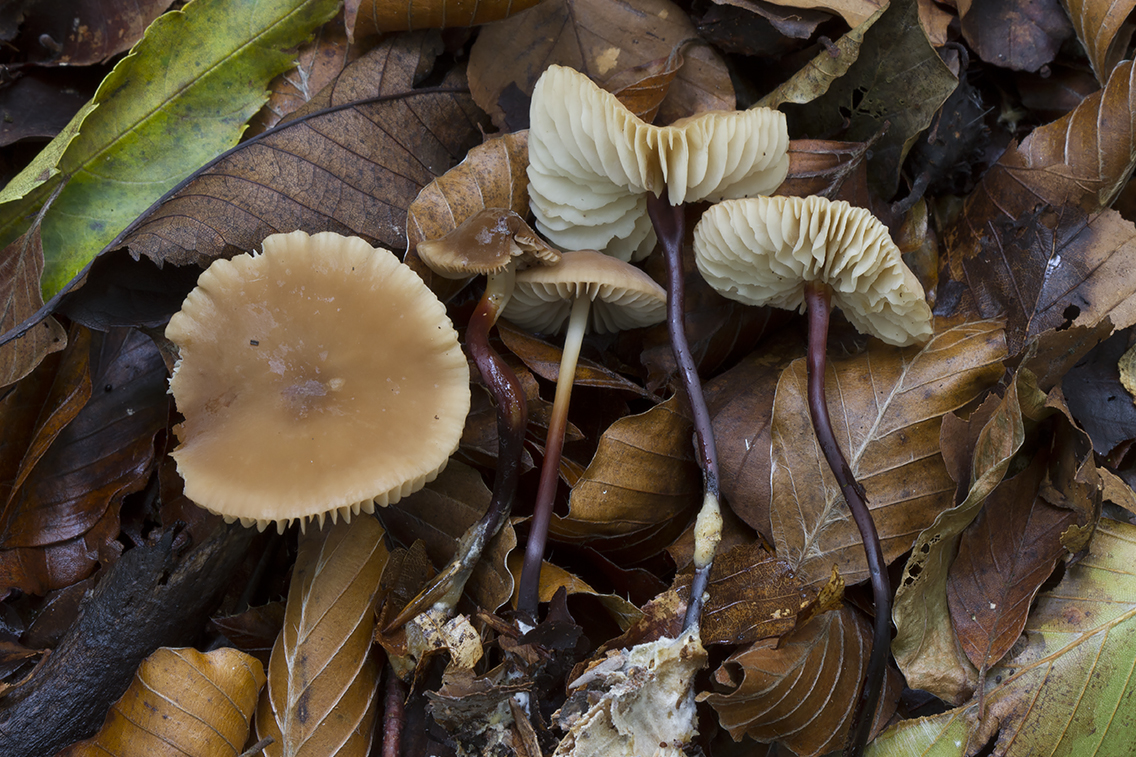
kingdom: Fungi
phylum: Basidiomycota
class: Agaricomycetes
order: Agaricales
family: Marasmiaceae
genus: Marasmius
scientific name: Marasmius cohaerens
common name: hornstokket bruskhat
